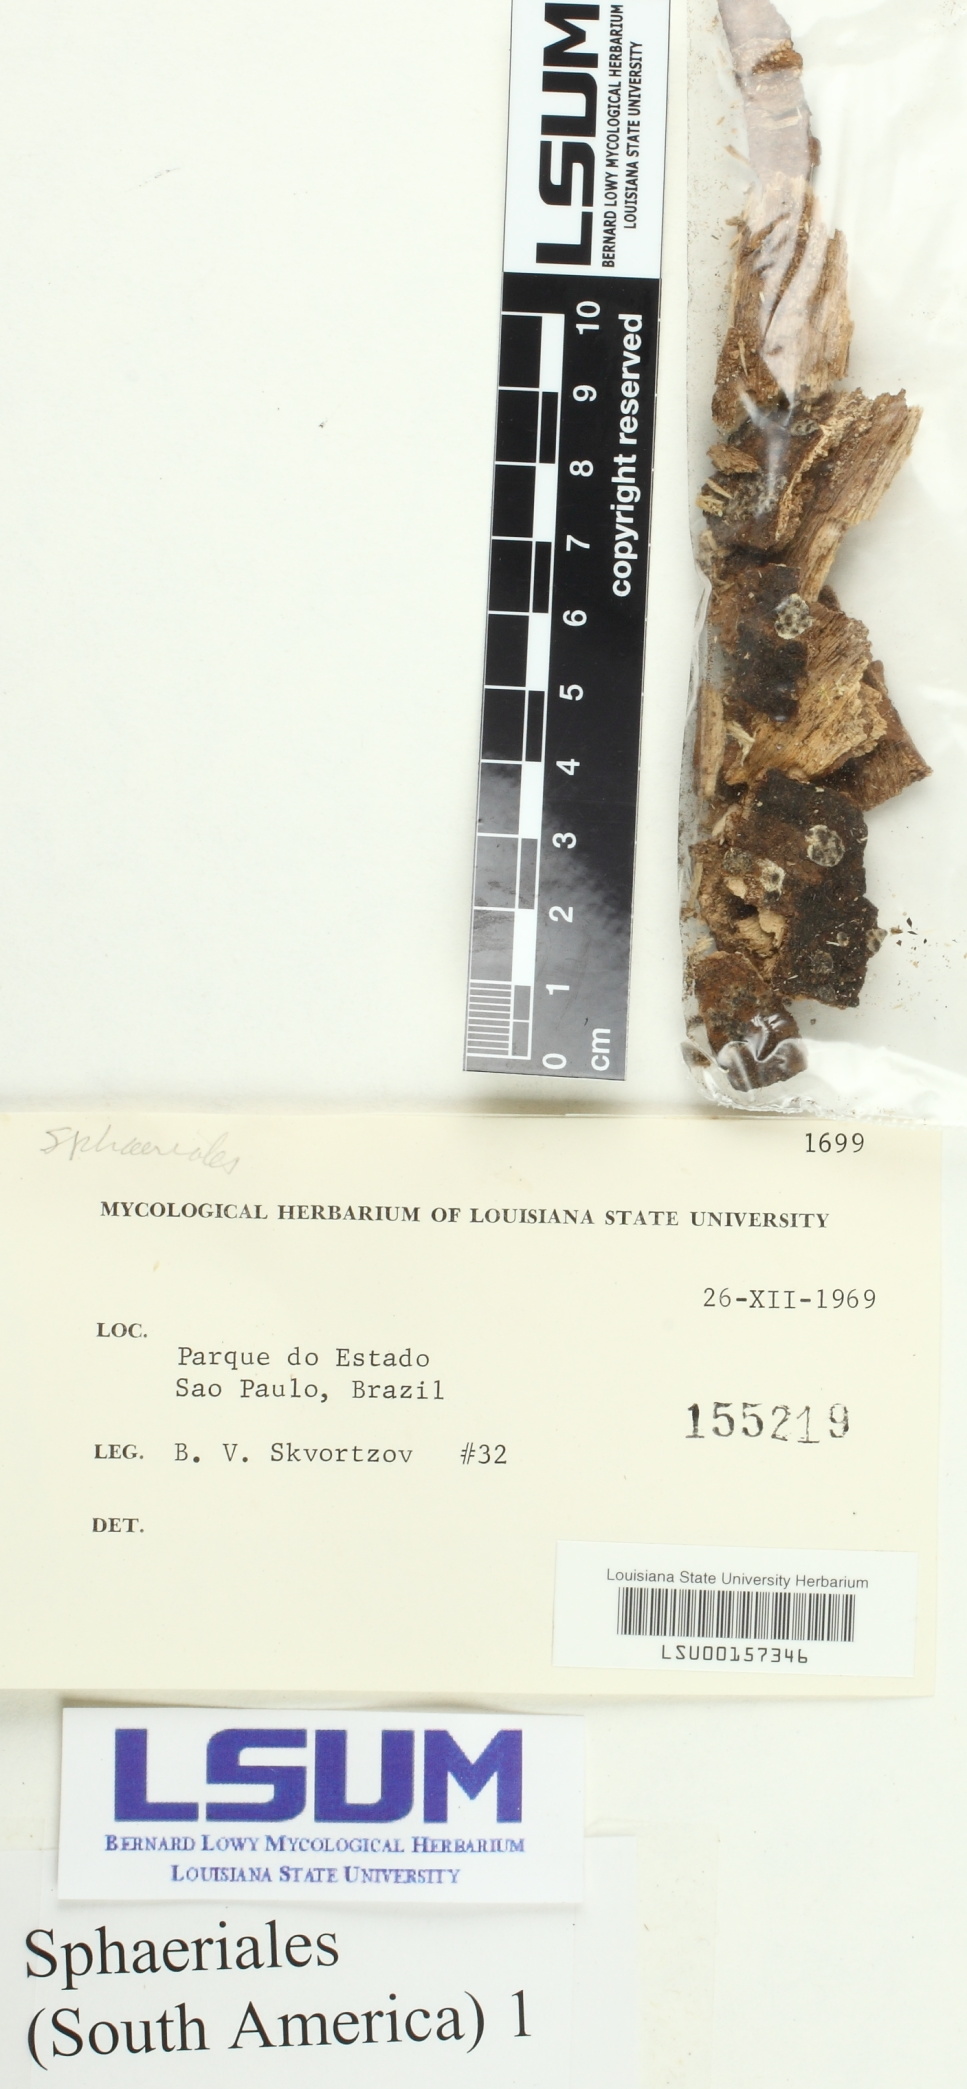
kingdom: Fungi
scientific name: Fungi
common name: Fungi
